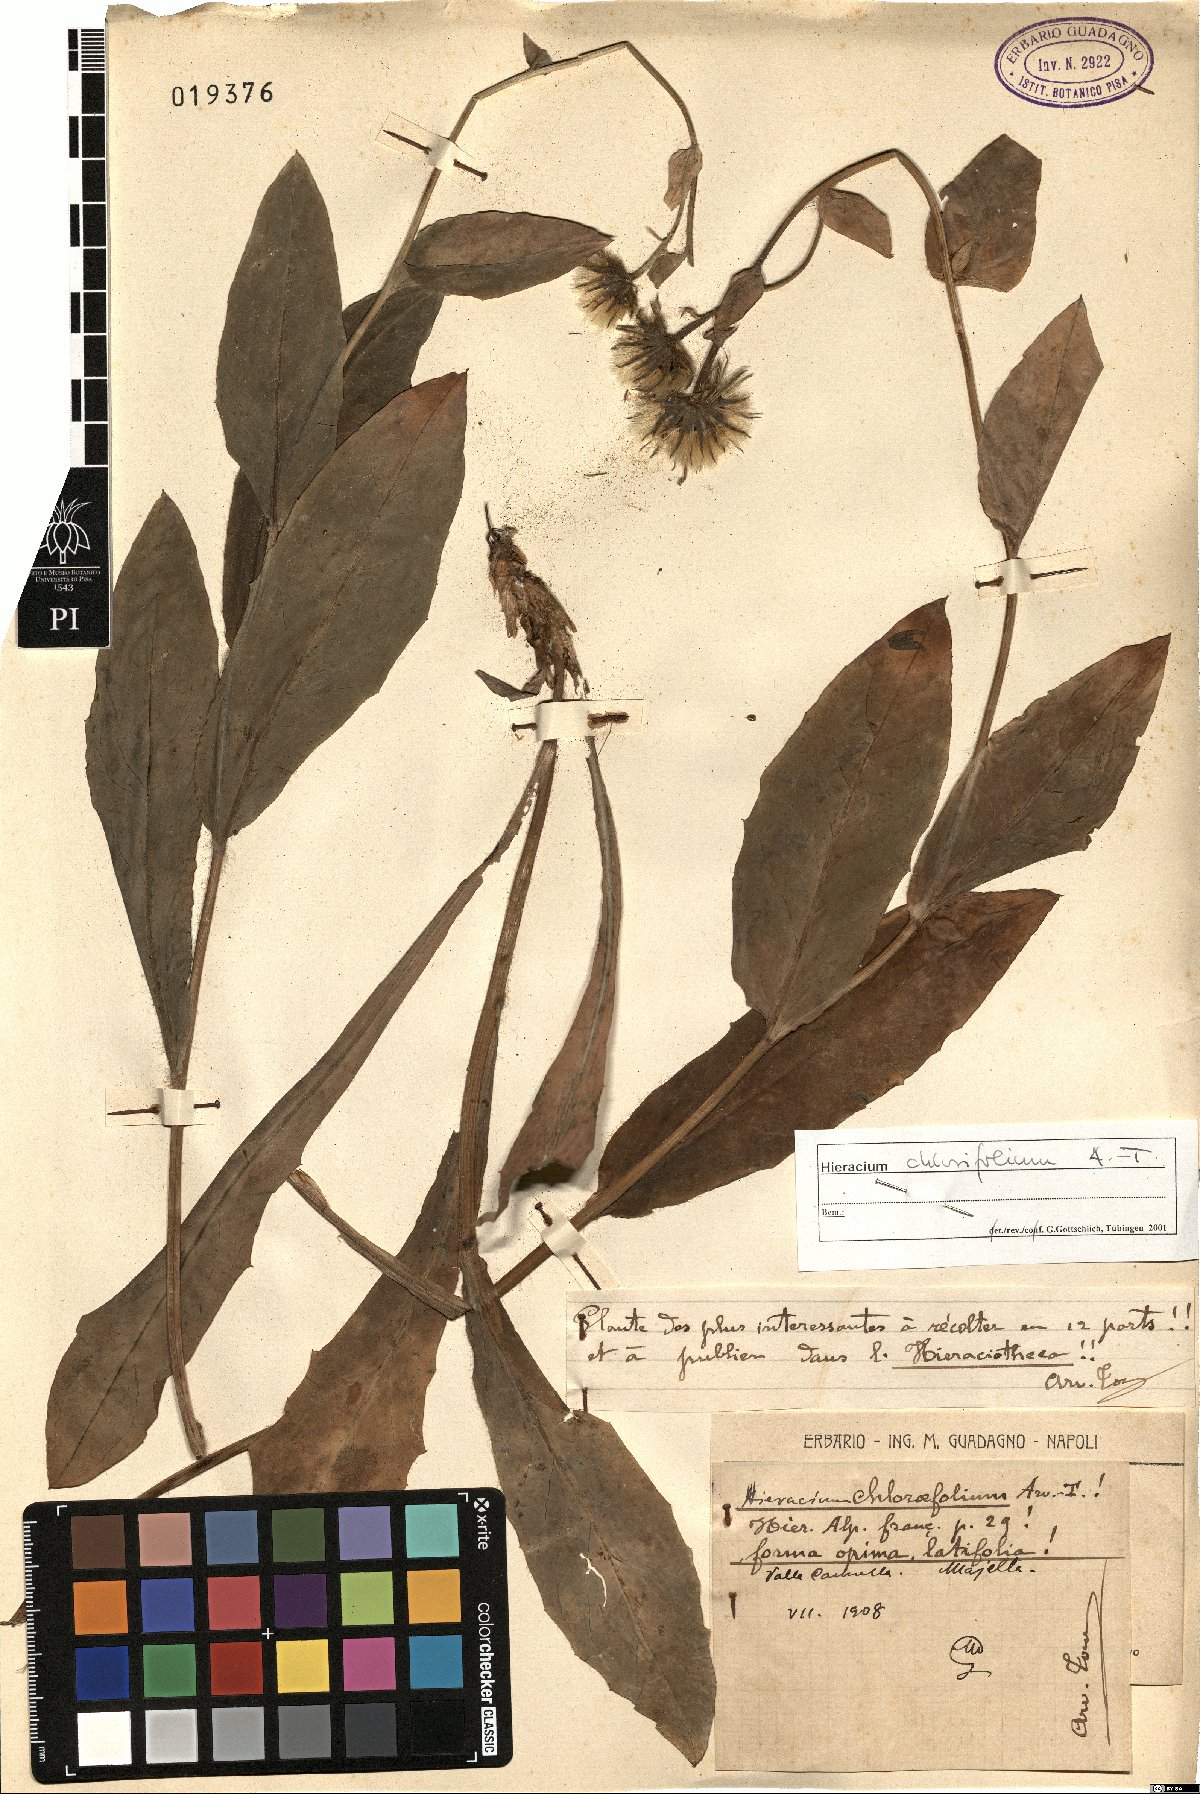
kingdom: Plantae
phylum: Tracheophyta
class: Magnoliopsida
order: Asterales
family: Asteraceae
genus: Hieracium
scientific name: Hieracium chlorifolium
